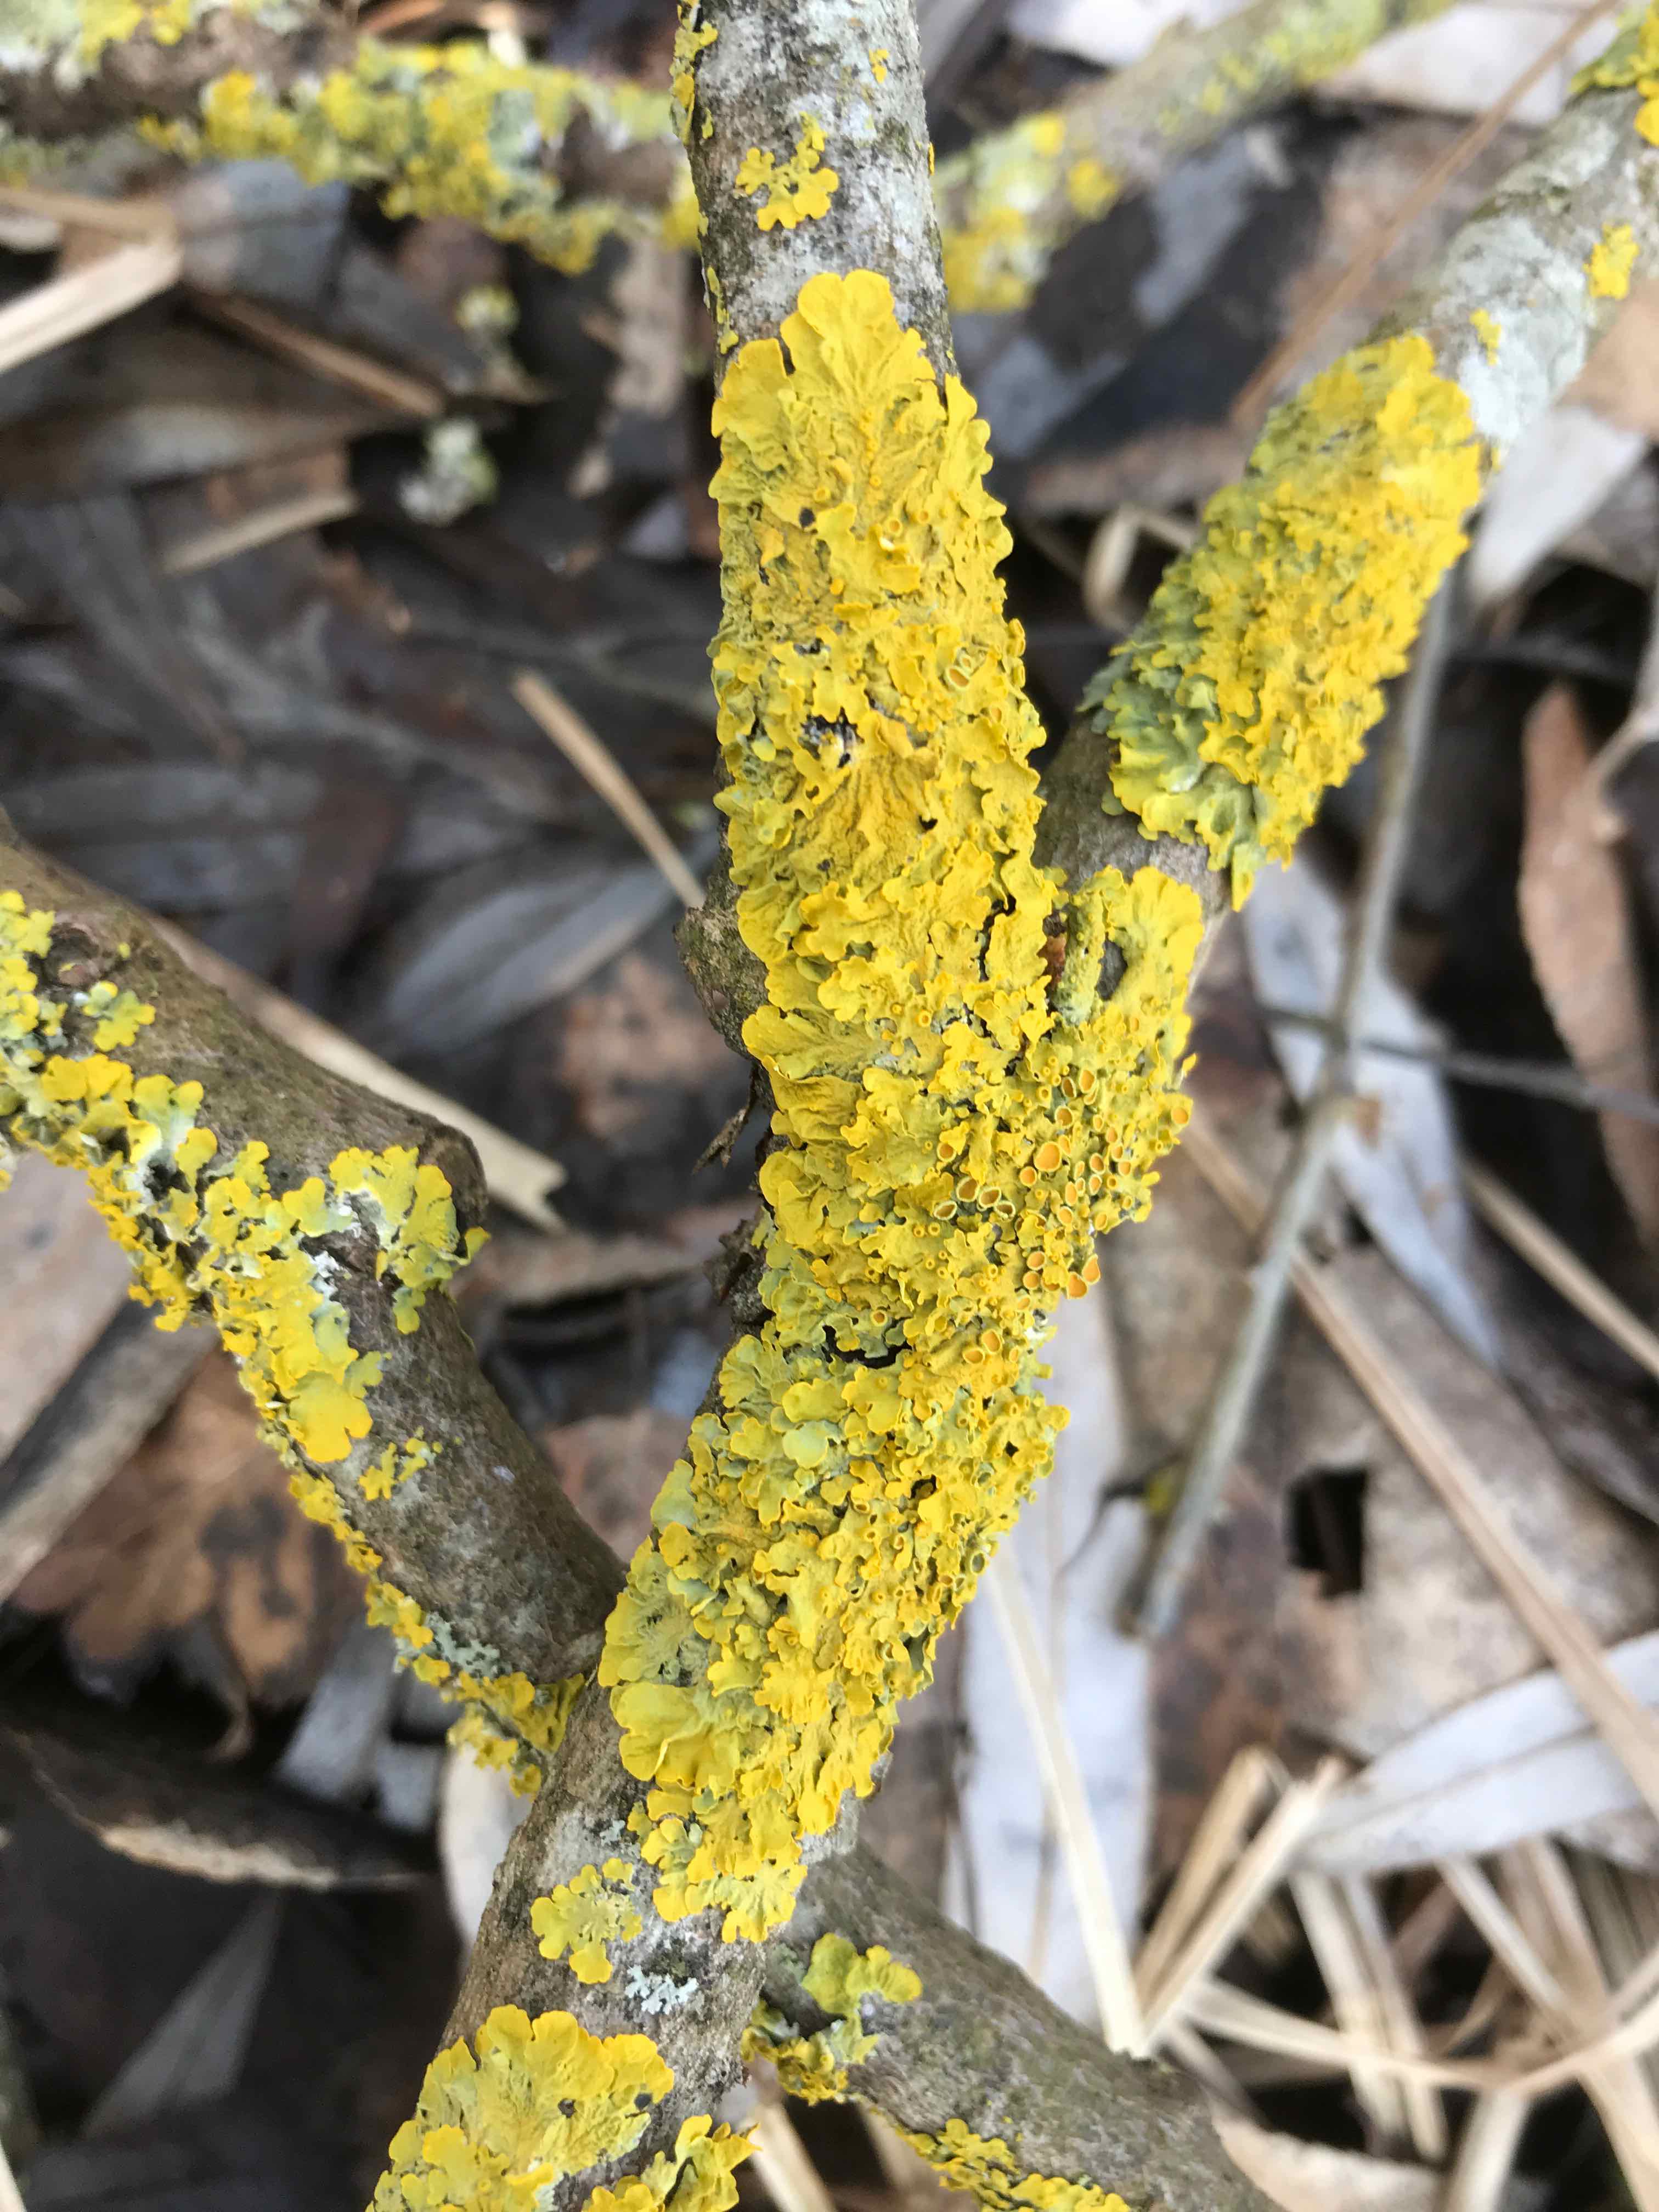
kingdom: Fungi
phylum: Ascomycota
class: Lecanoromycetes
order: Teloschistales
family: Teloschistaceae
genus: Xanthoria
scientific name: Xanthoria parietina
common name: almindelig væggelav
